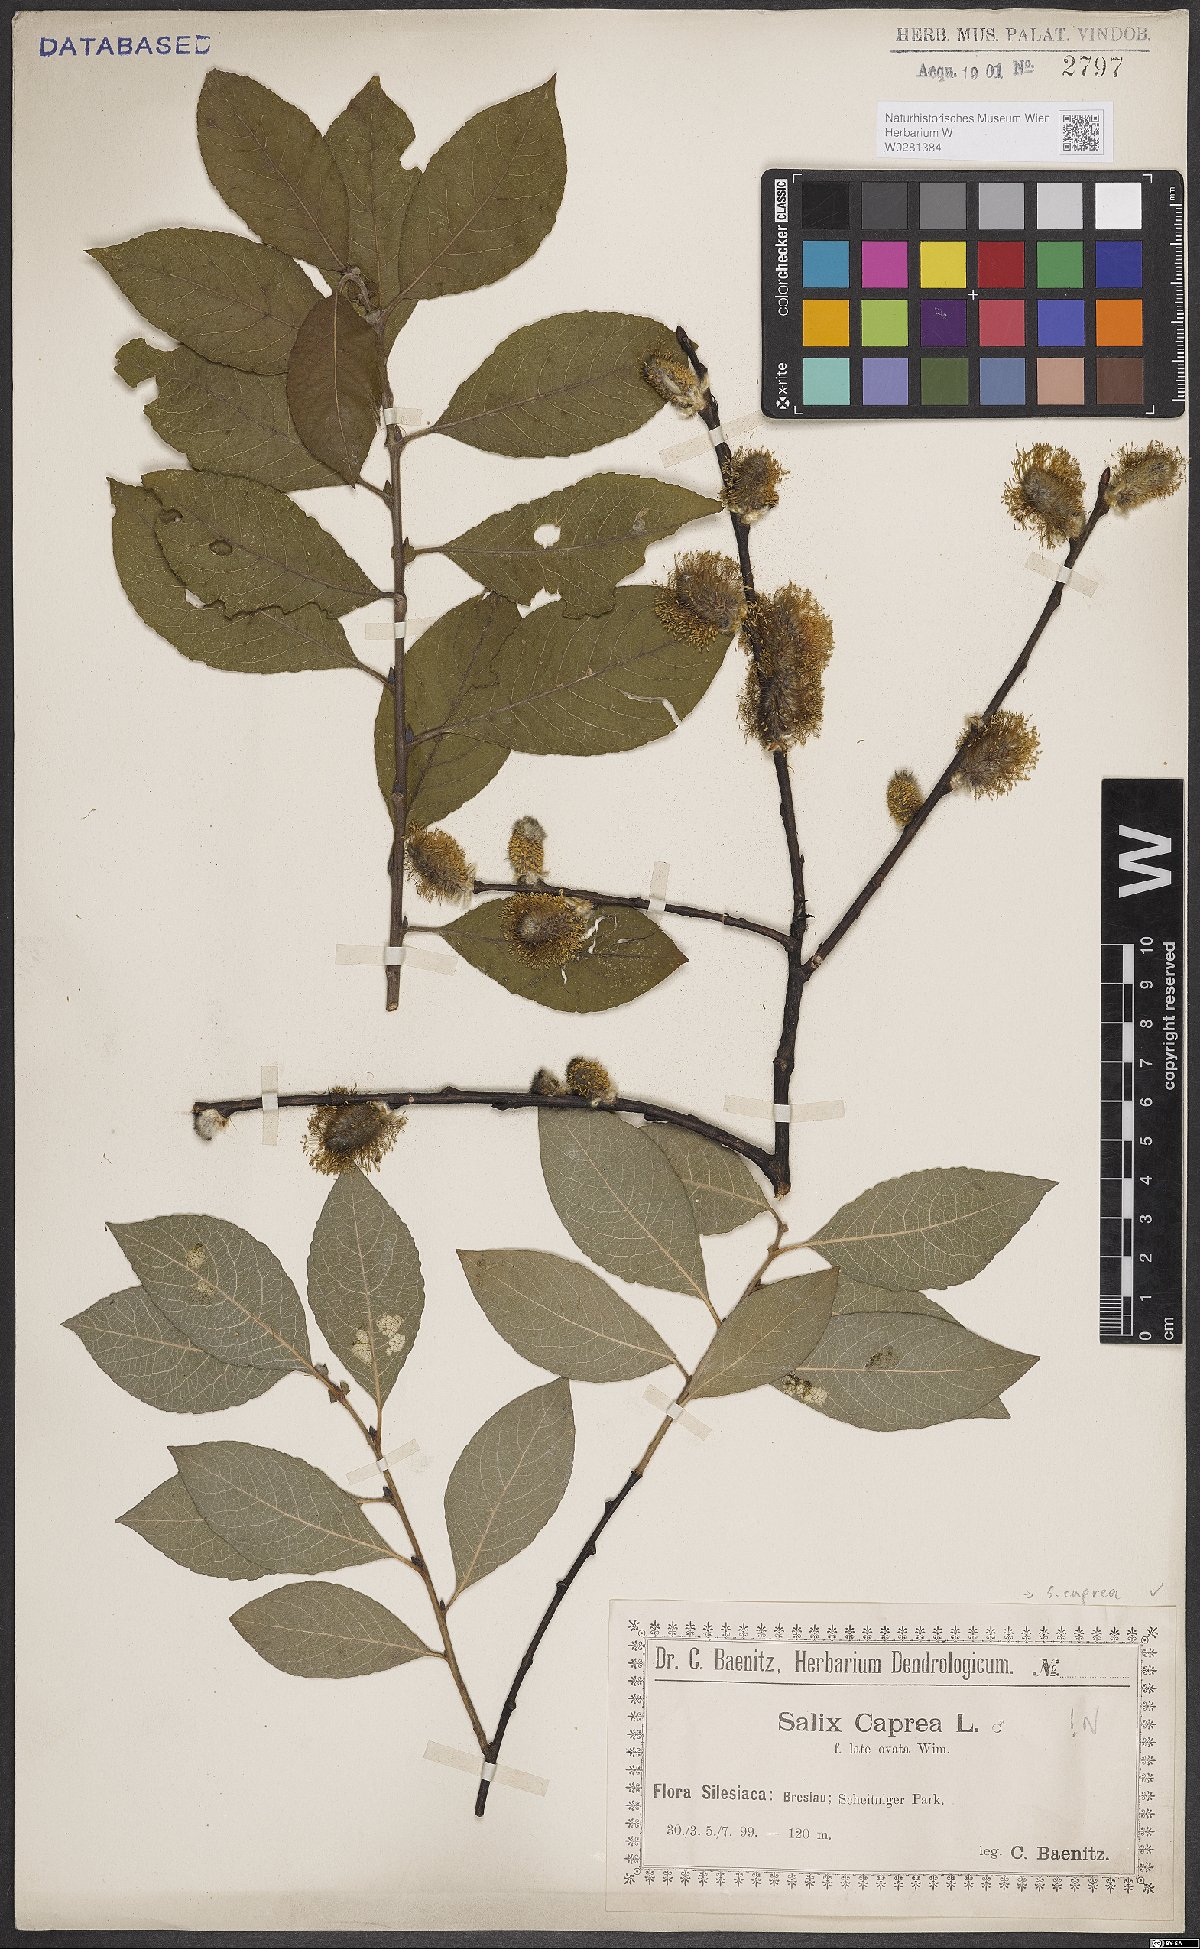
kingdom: Plantae
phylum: Tracheophyta
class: Magnoliopsida
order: Malpighiales
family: Salicaceae
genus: Salix
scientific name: Salix caprea
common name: Goat willow
